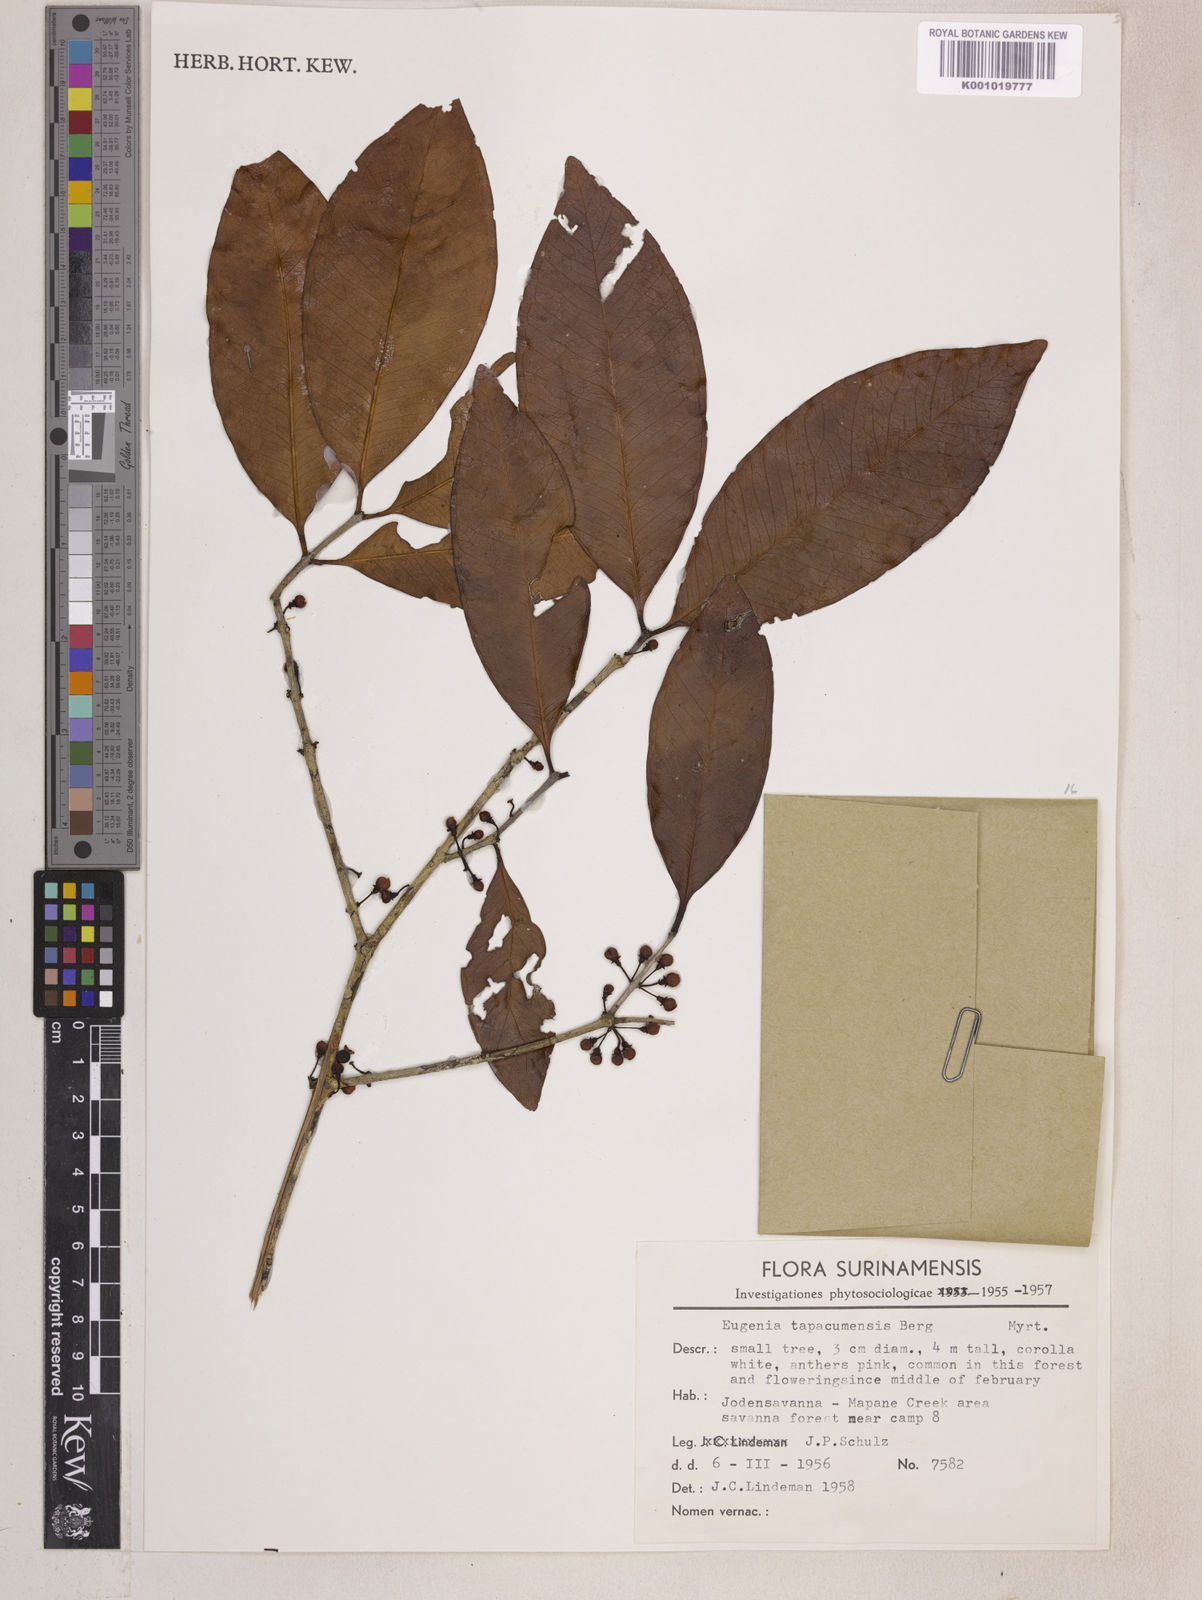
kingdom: Plantae
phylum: Tracheophyta
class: Magnoliopsida
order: Myrtales
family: Myrtaceae
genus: Eugenia
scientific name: Eugenia stictopetala
